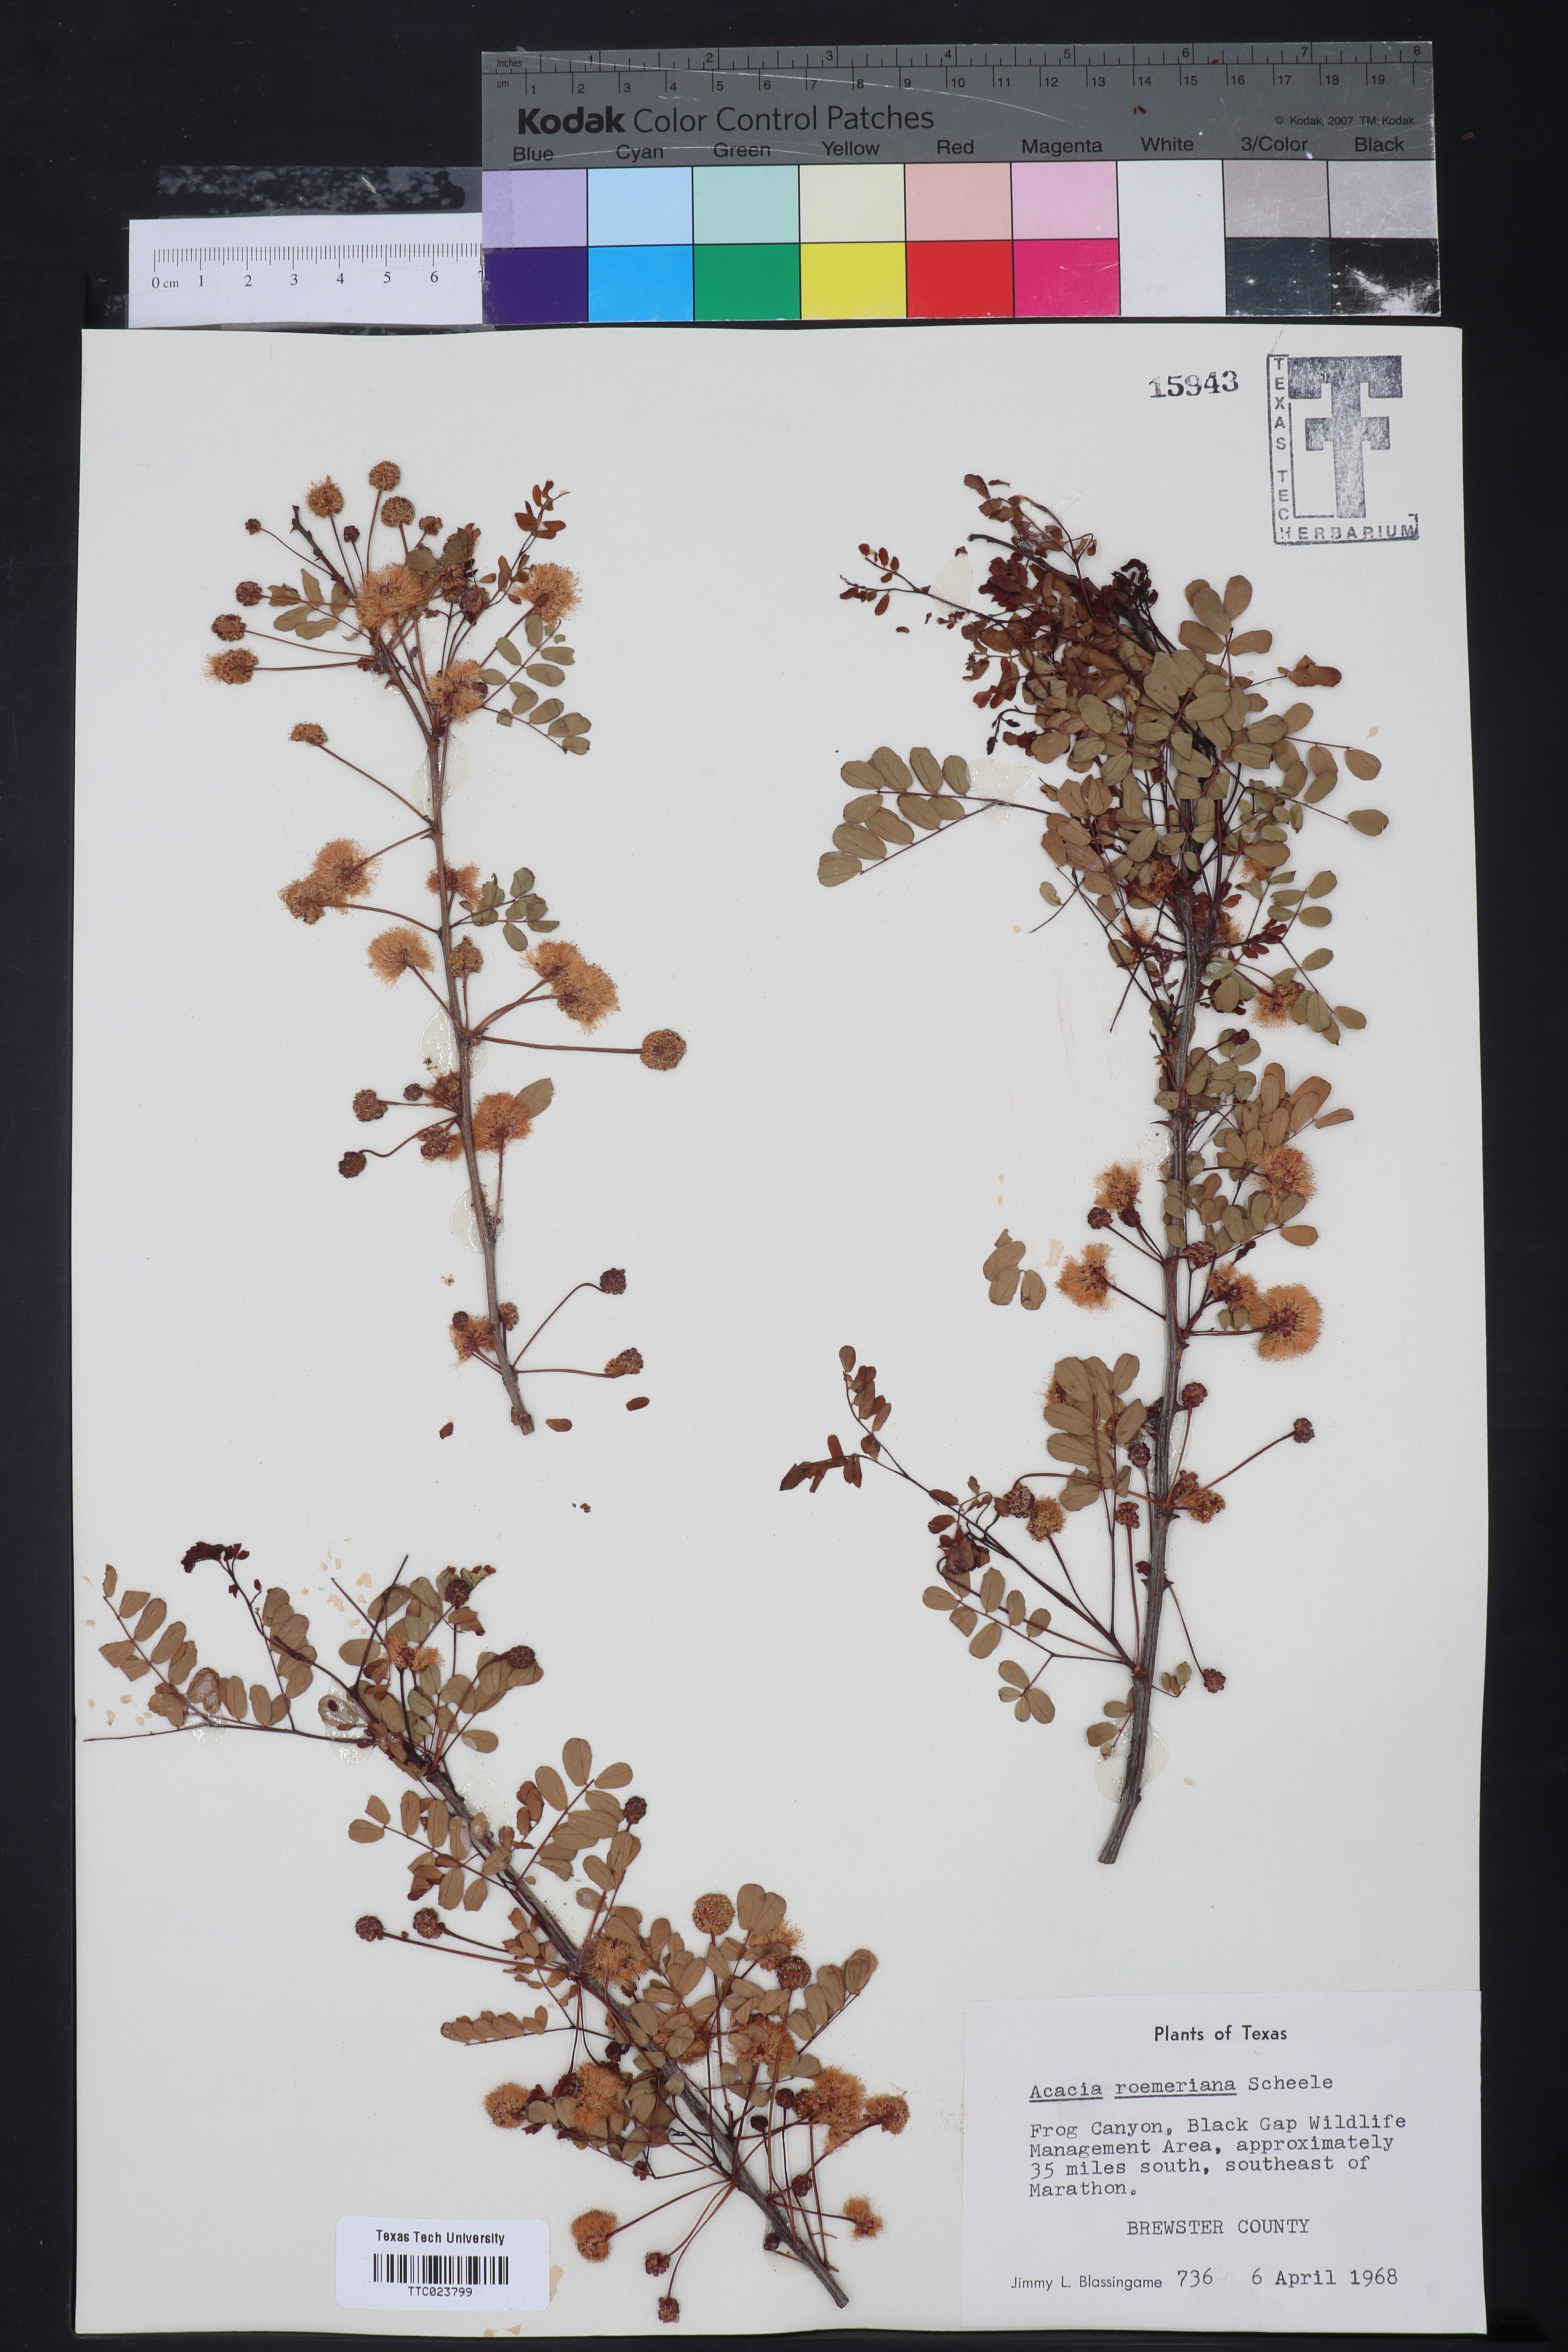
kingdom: Plantae
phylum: Tracheophyta
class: Magnoliopsida
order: Fabales
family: Fabaceae
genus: Senegalia
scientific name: Senegalia roemeriana
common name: Roemer's acacia
